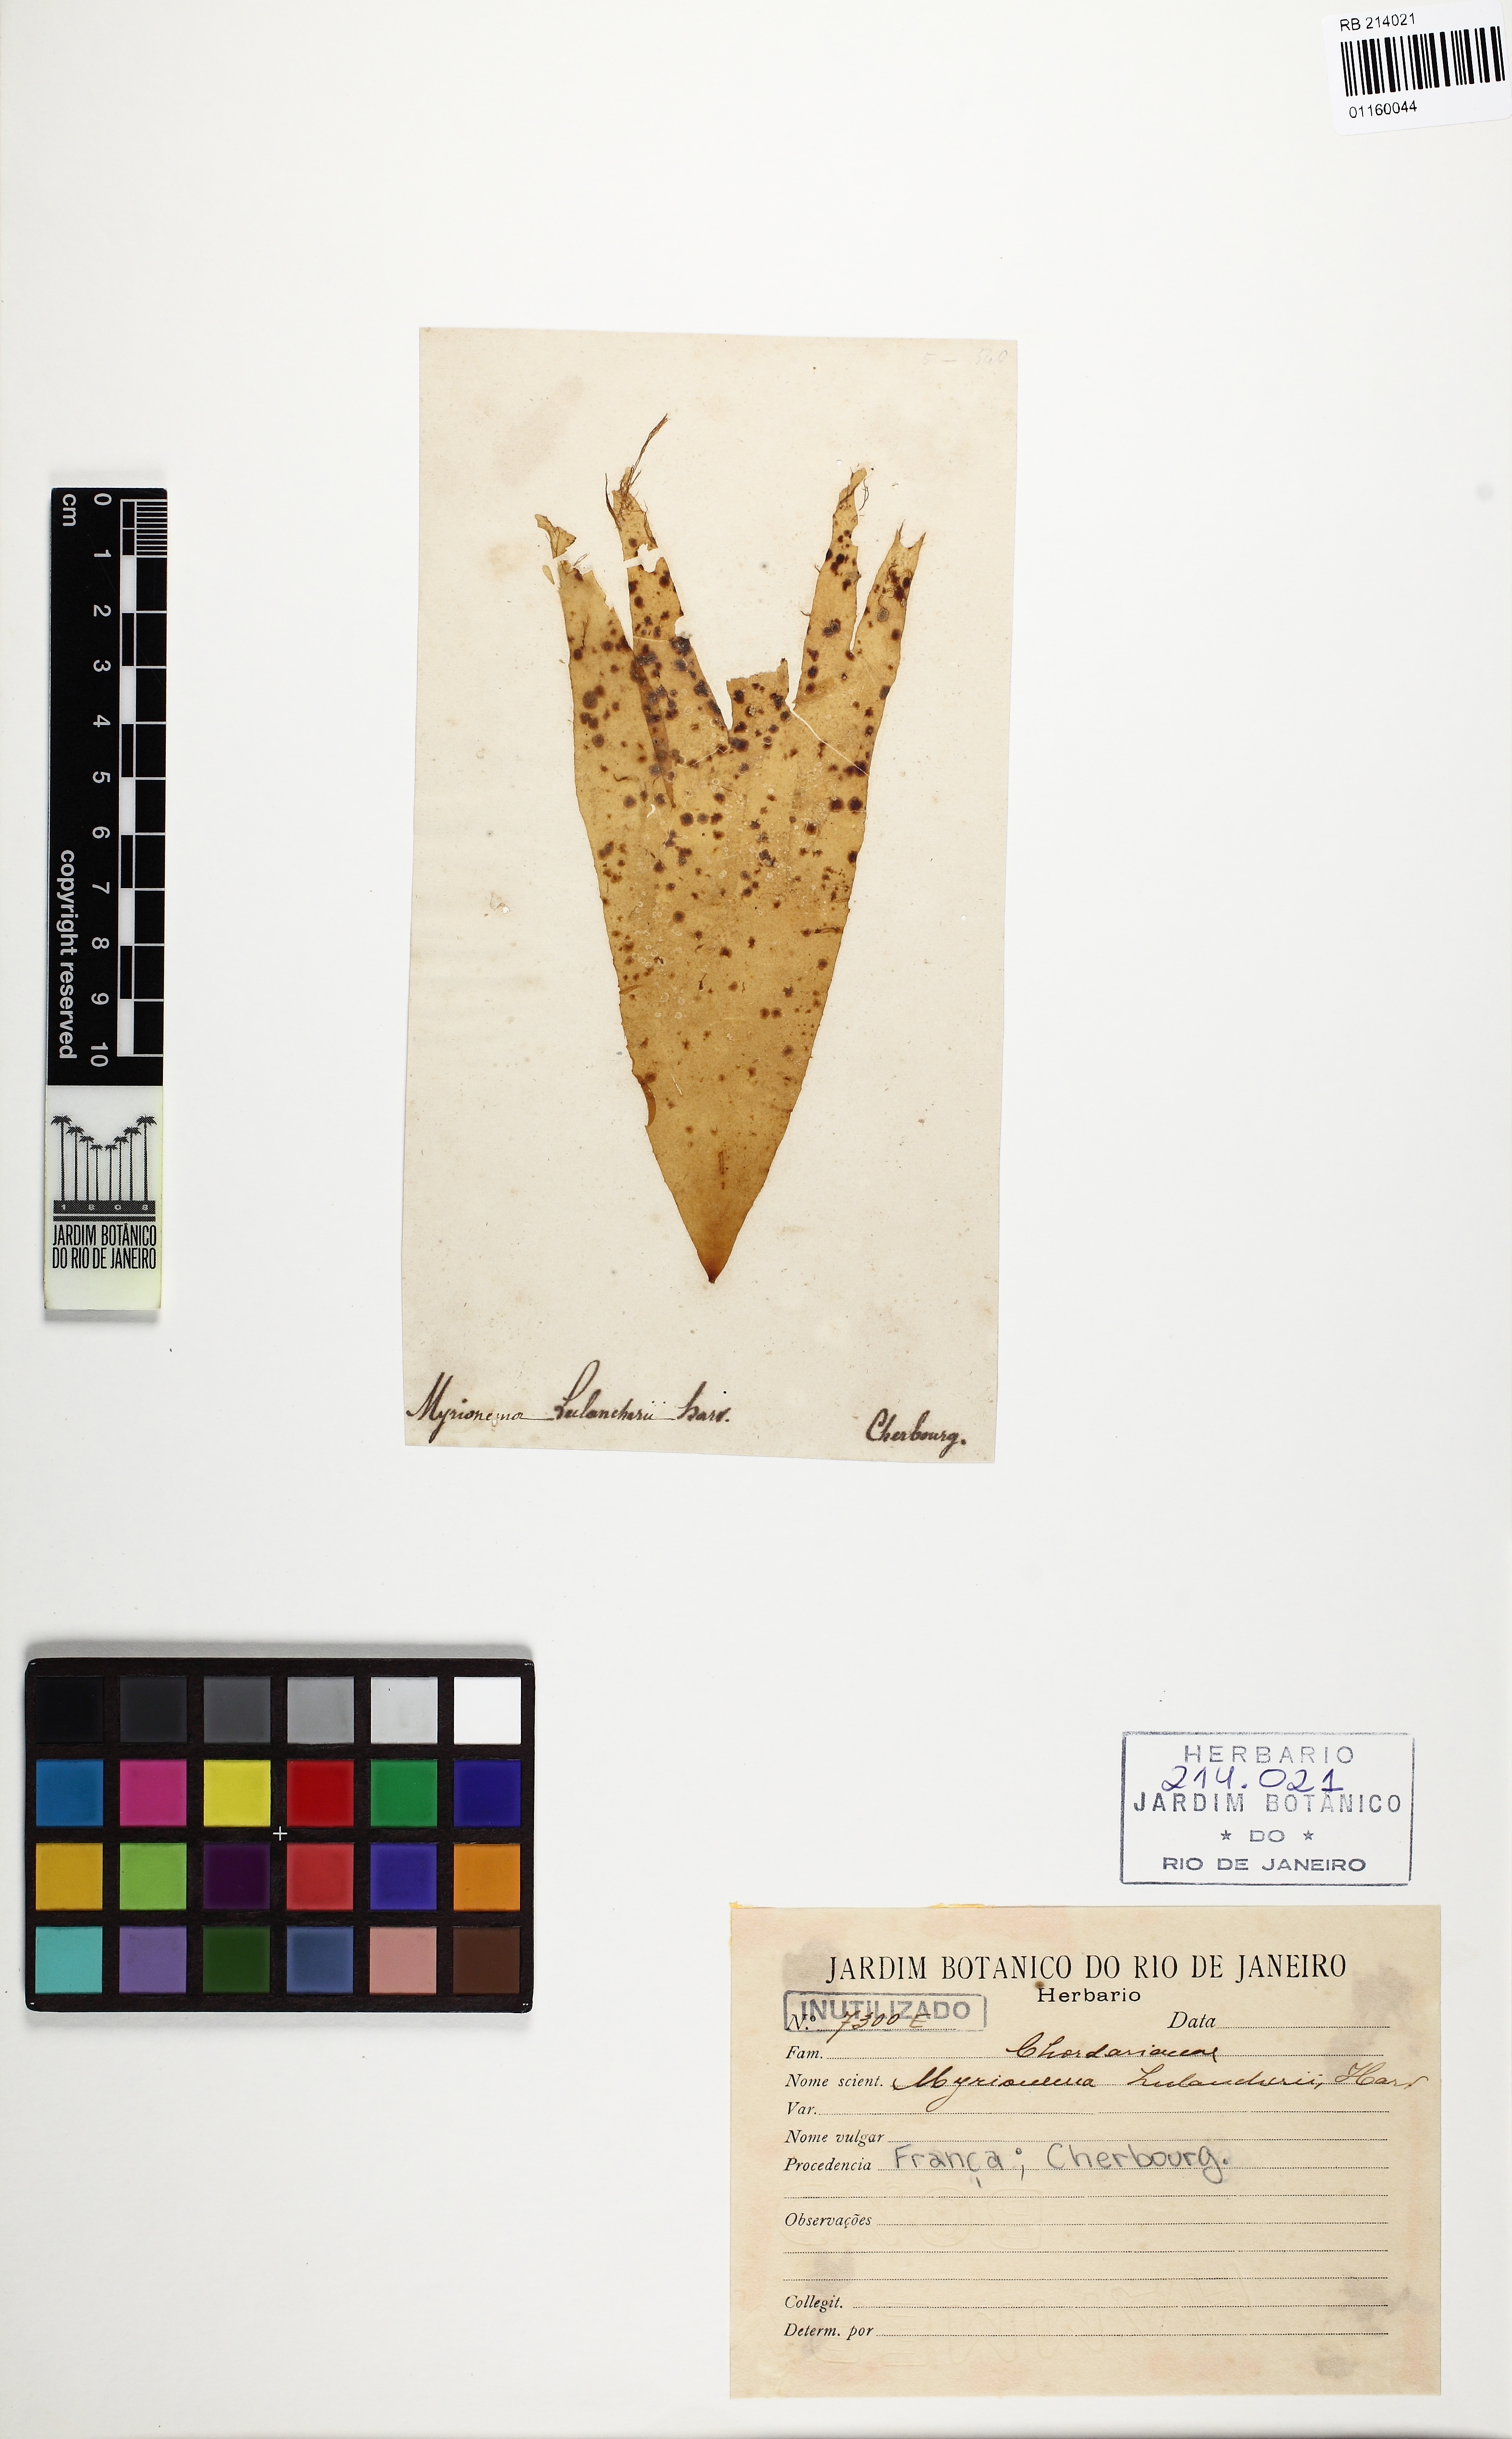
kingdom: Chromista
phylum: Ochrophyta
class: Phaeophyceae
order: Ectocarpales
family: Chordariaceae
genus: Myrionema
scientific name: Myrionema strangulans
